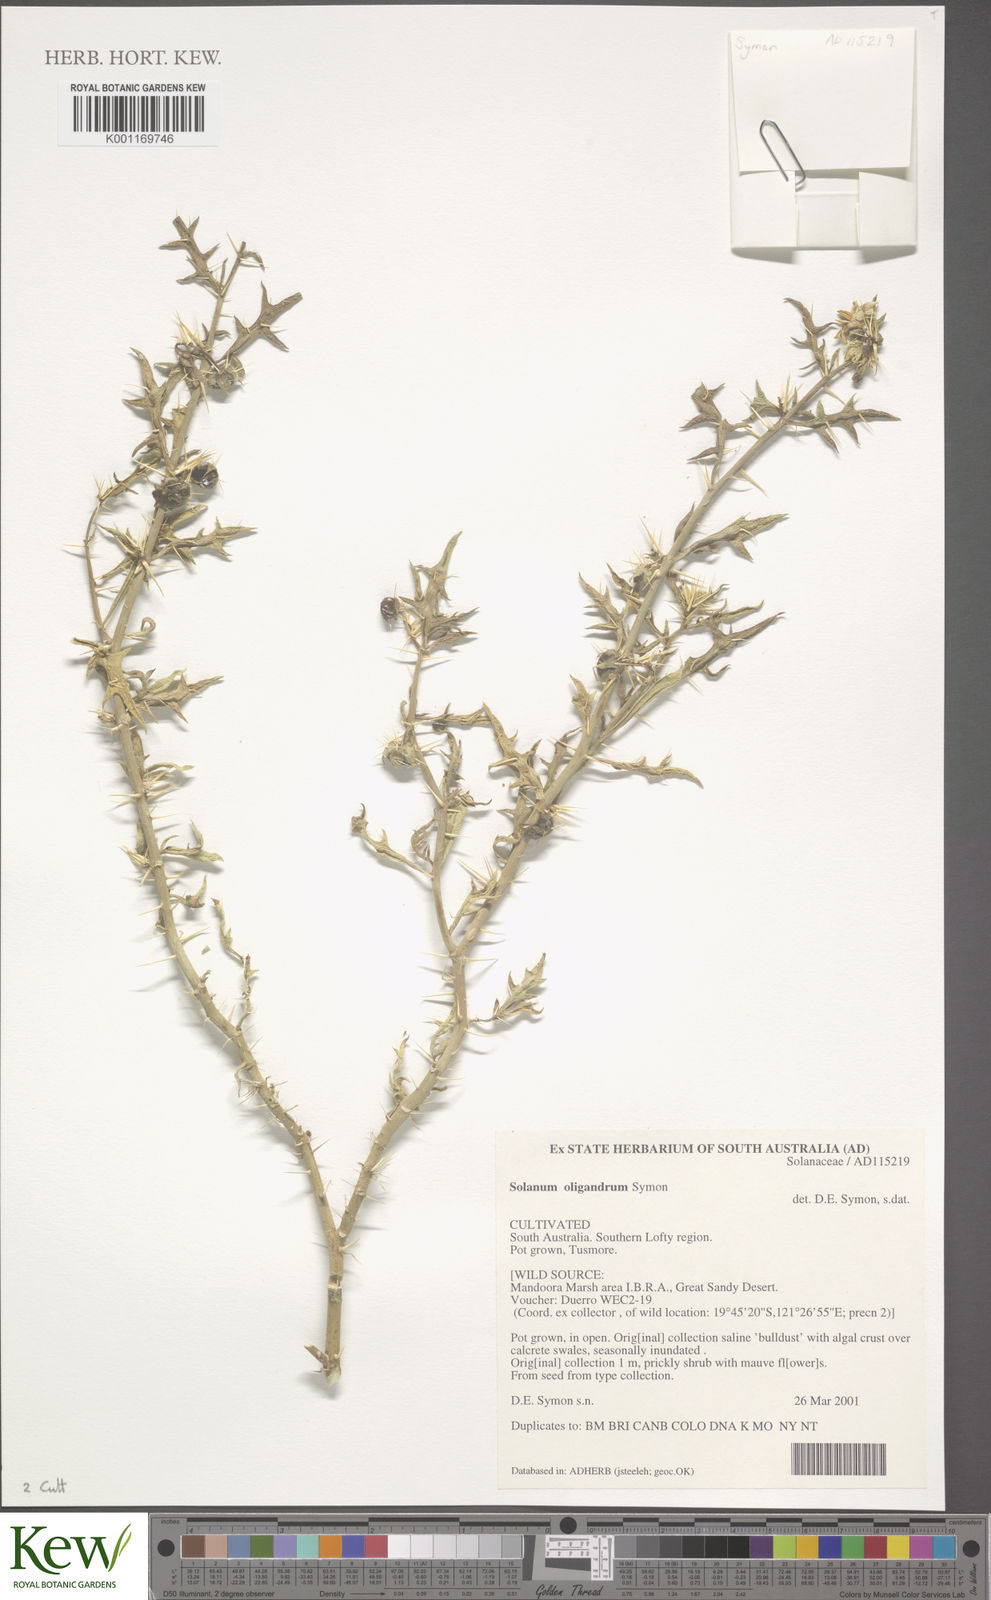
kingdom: Plantae
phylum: Tracheophyta
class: Magnoliopsida
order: Solanales
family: Solanaceae
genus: Solanum
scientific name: Solanum oligandrum
